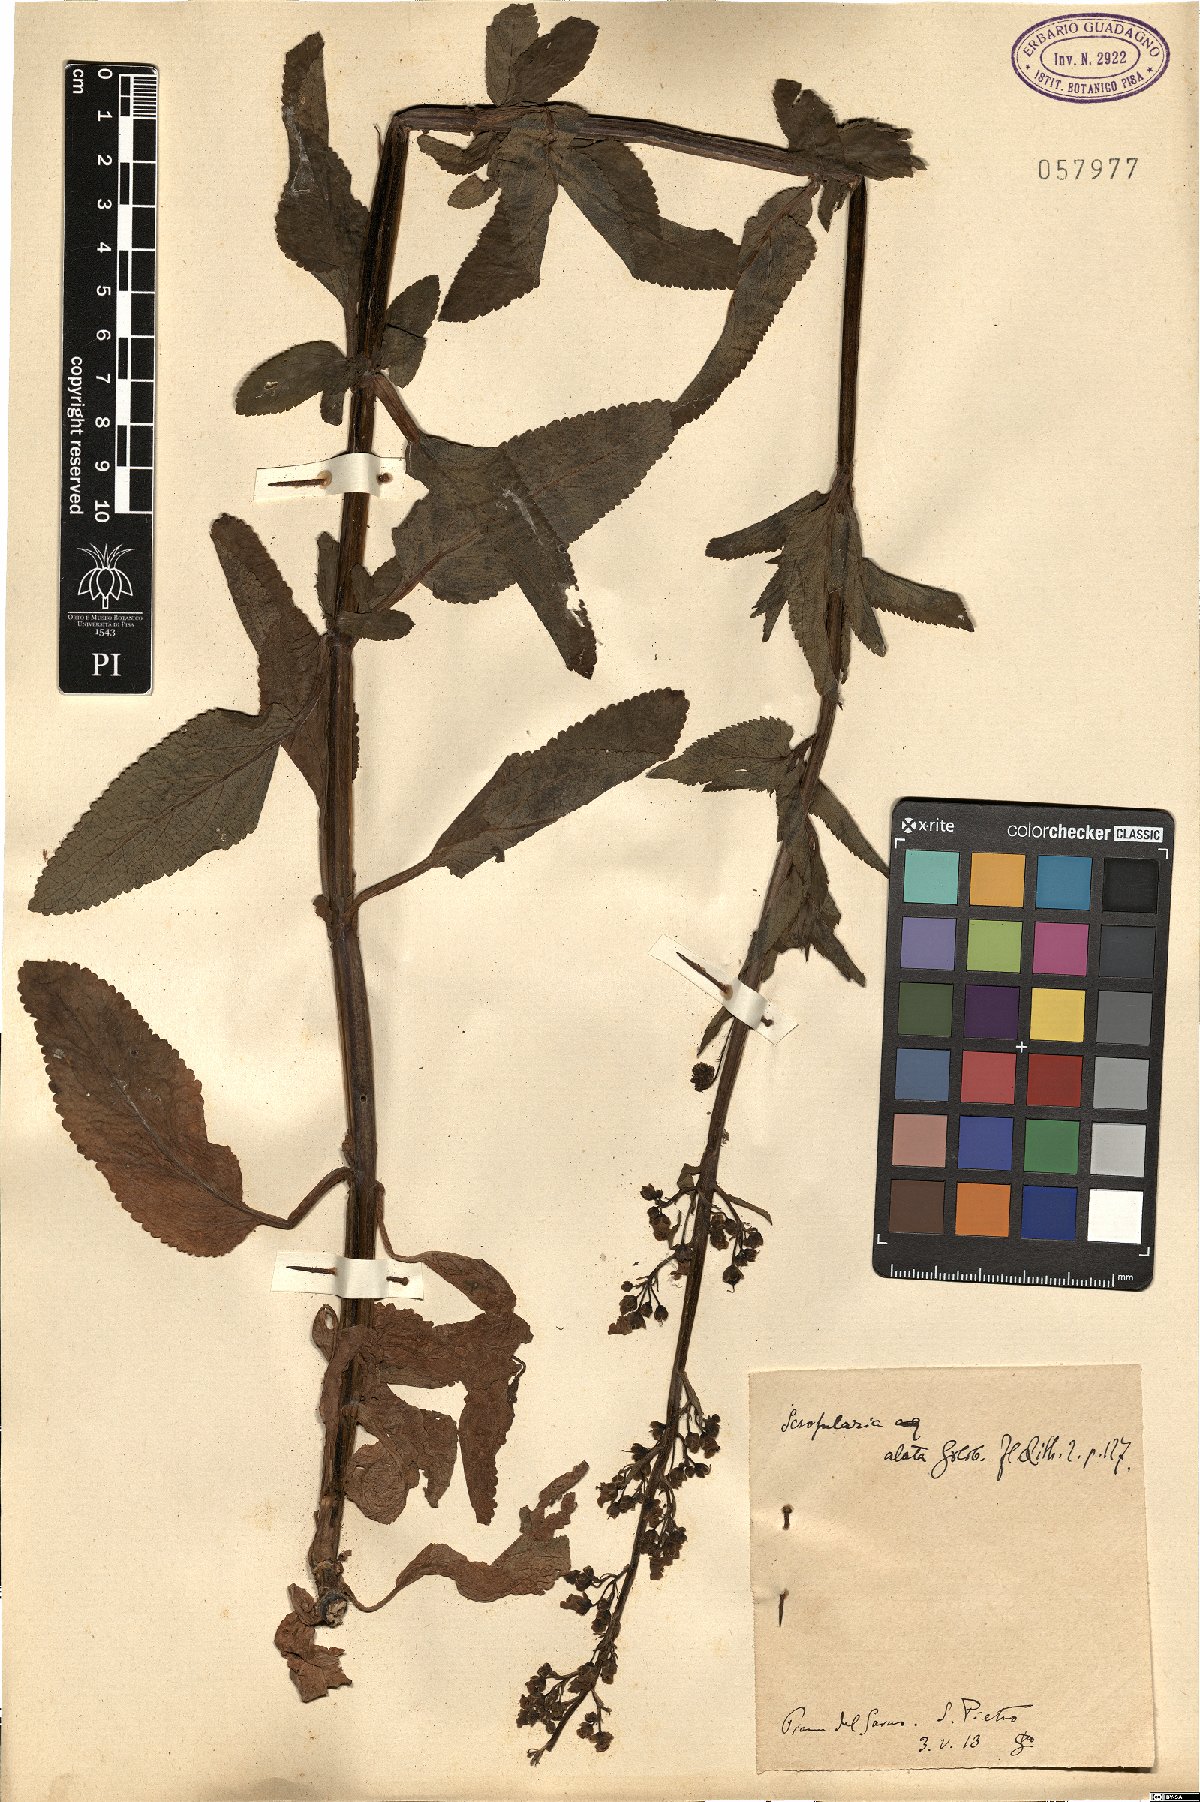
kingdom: Plantae
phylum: Tracheophyta
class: Magnoliopsida
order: Lamiales
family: Scrophulariaceae
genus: Scrophularia
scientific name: Scrophularia umbrosa
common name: Green figwort
